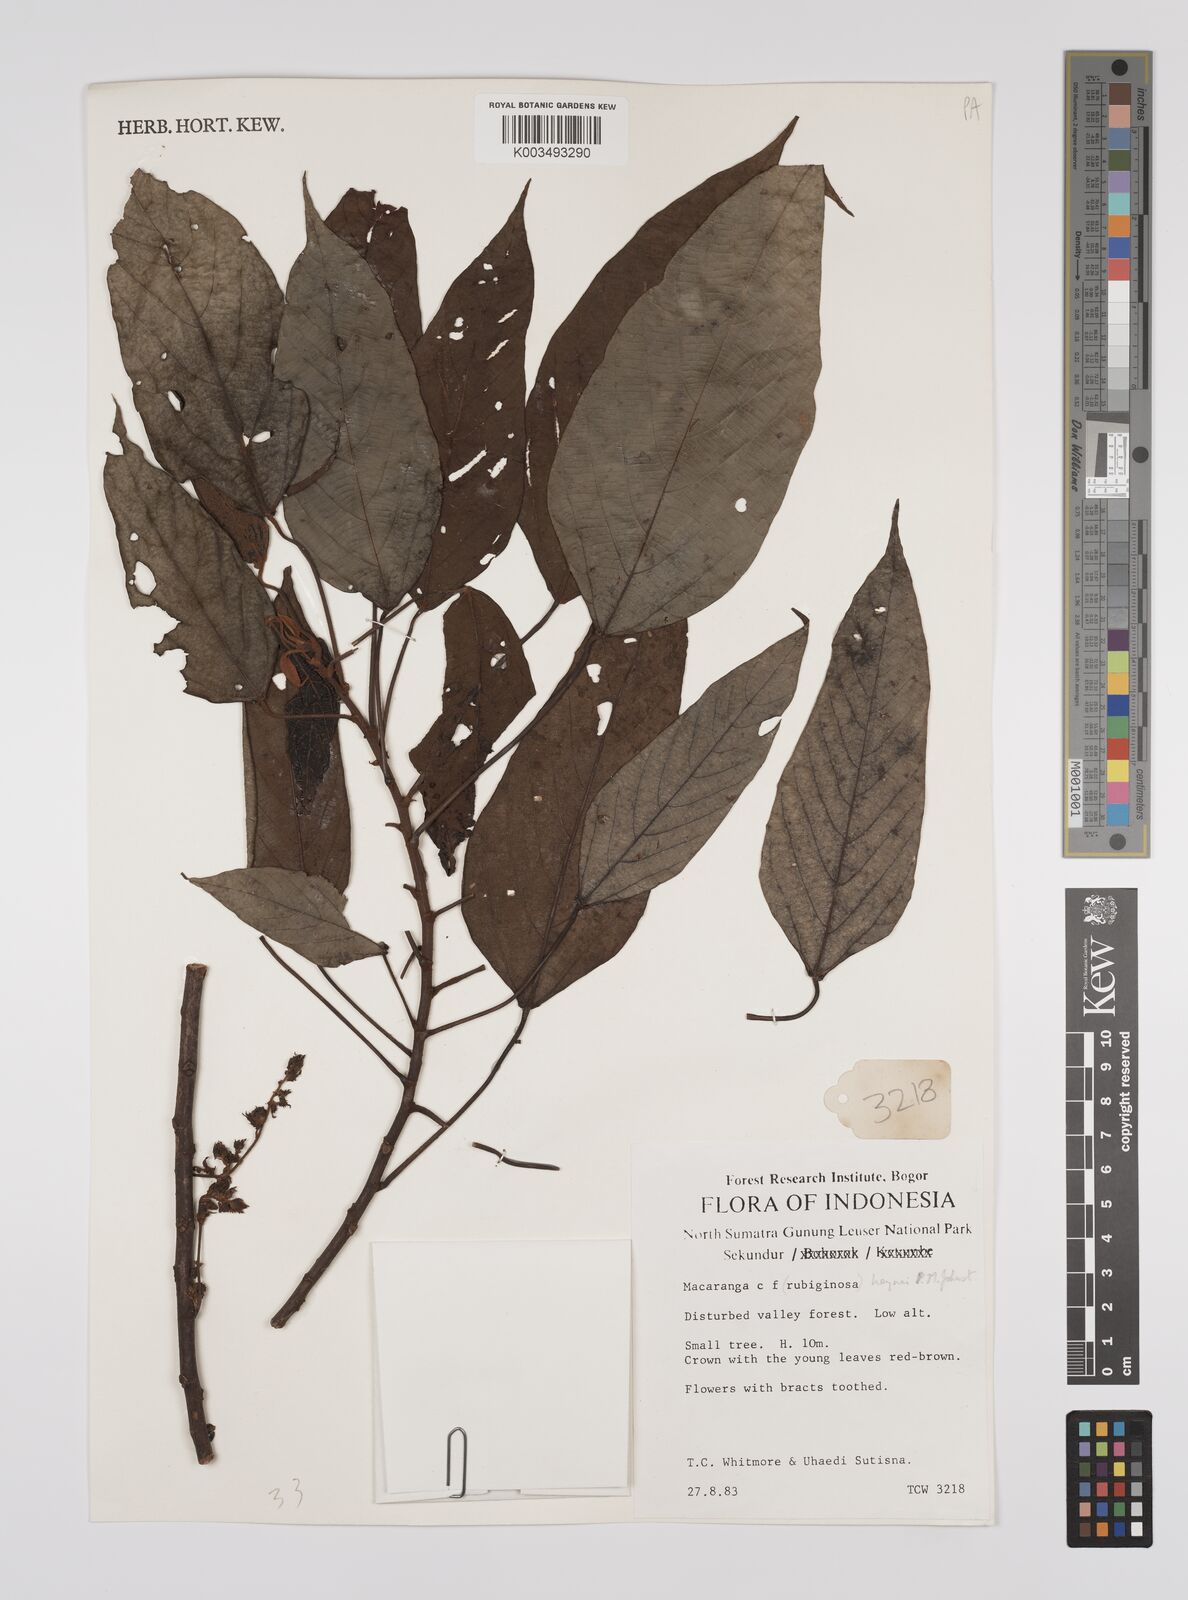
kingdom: Plantae
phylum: Tracheophyta
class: Magnoliopsida
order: Malpighiales
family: Euphorbiaceae
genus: Macaranga
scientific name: Macaranga heynei
